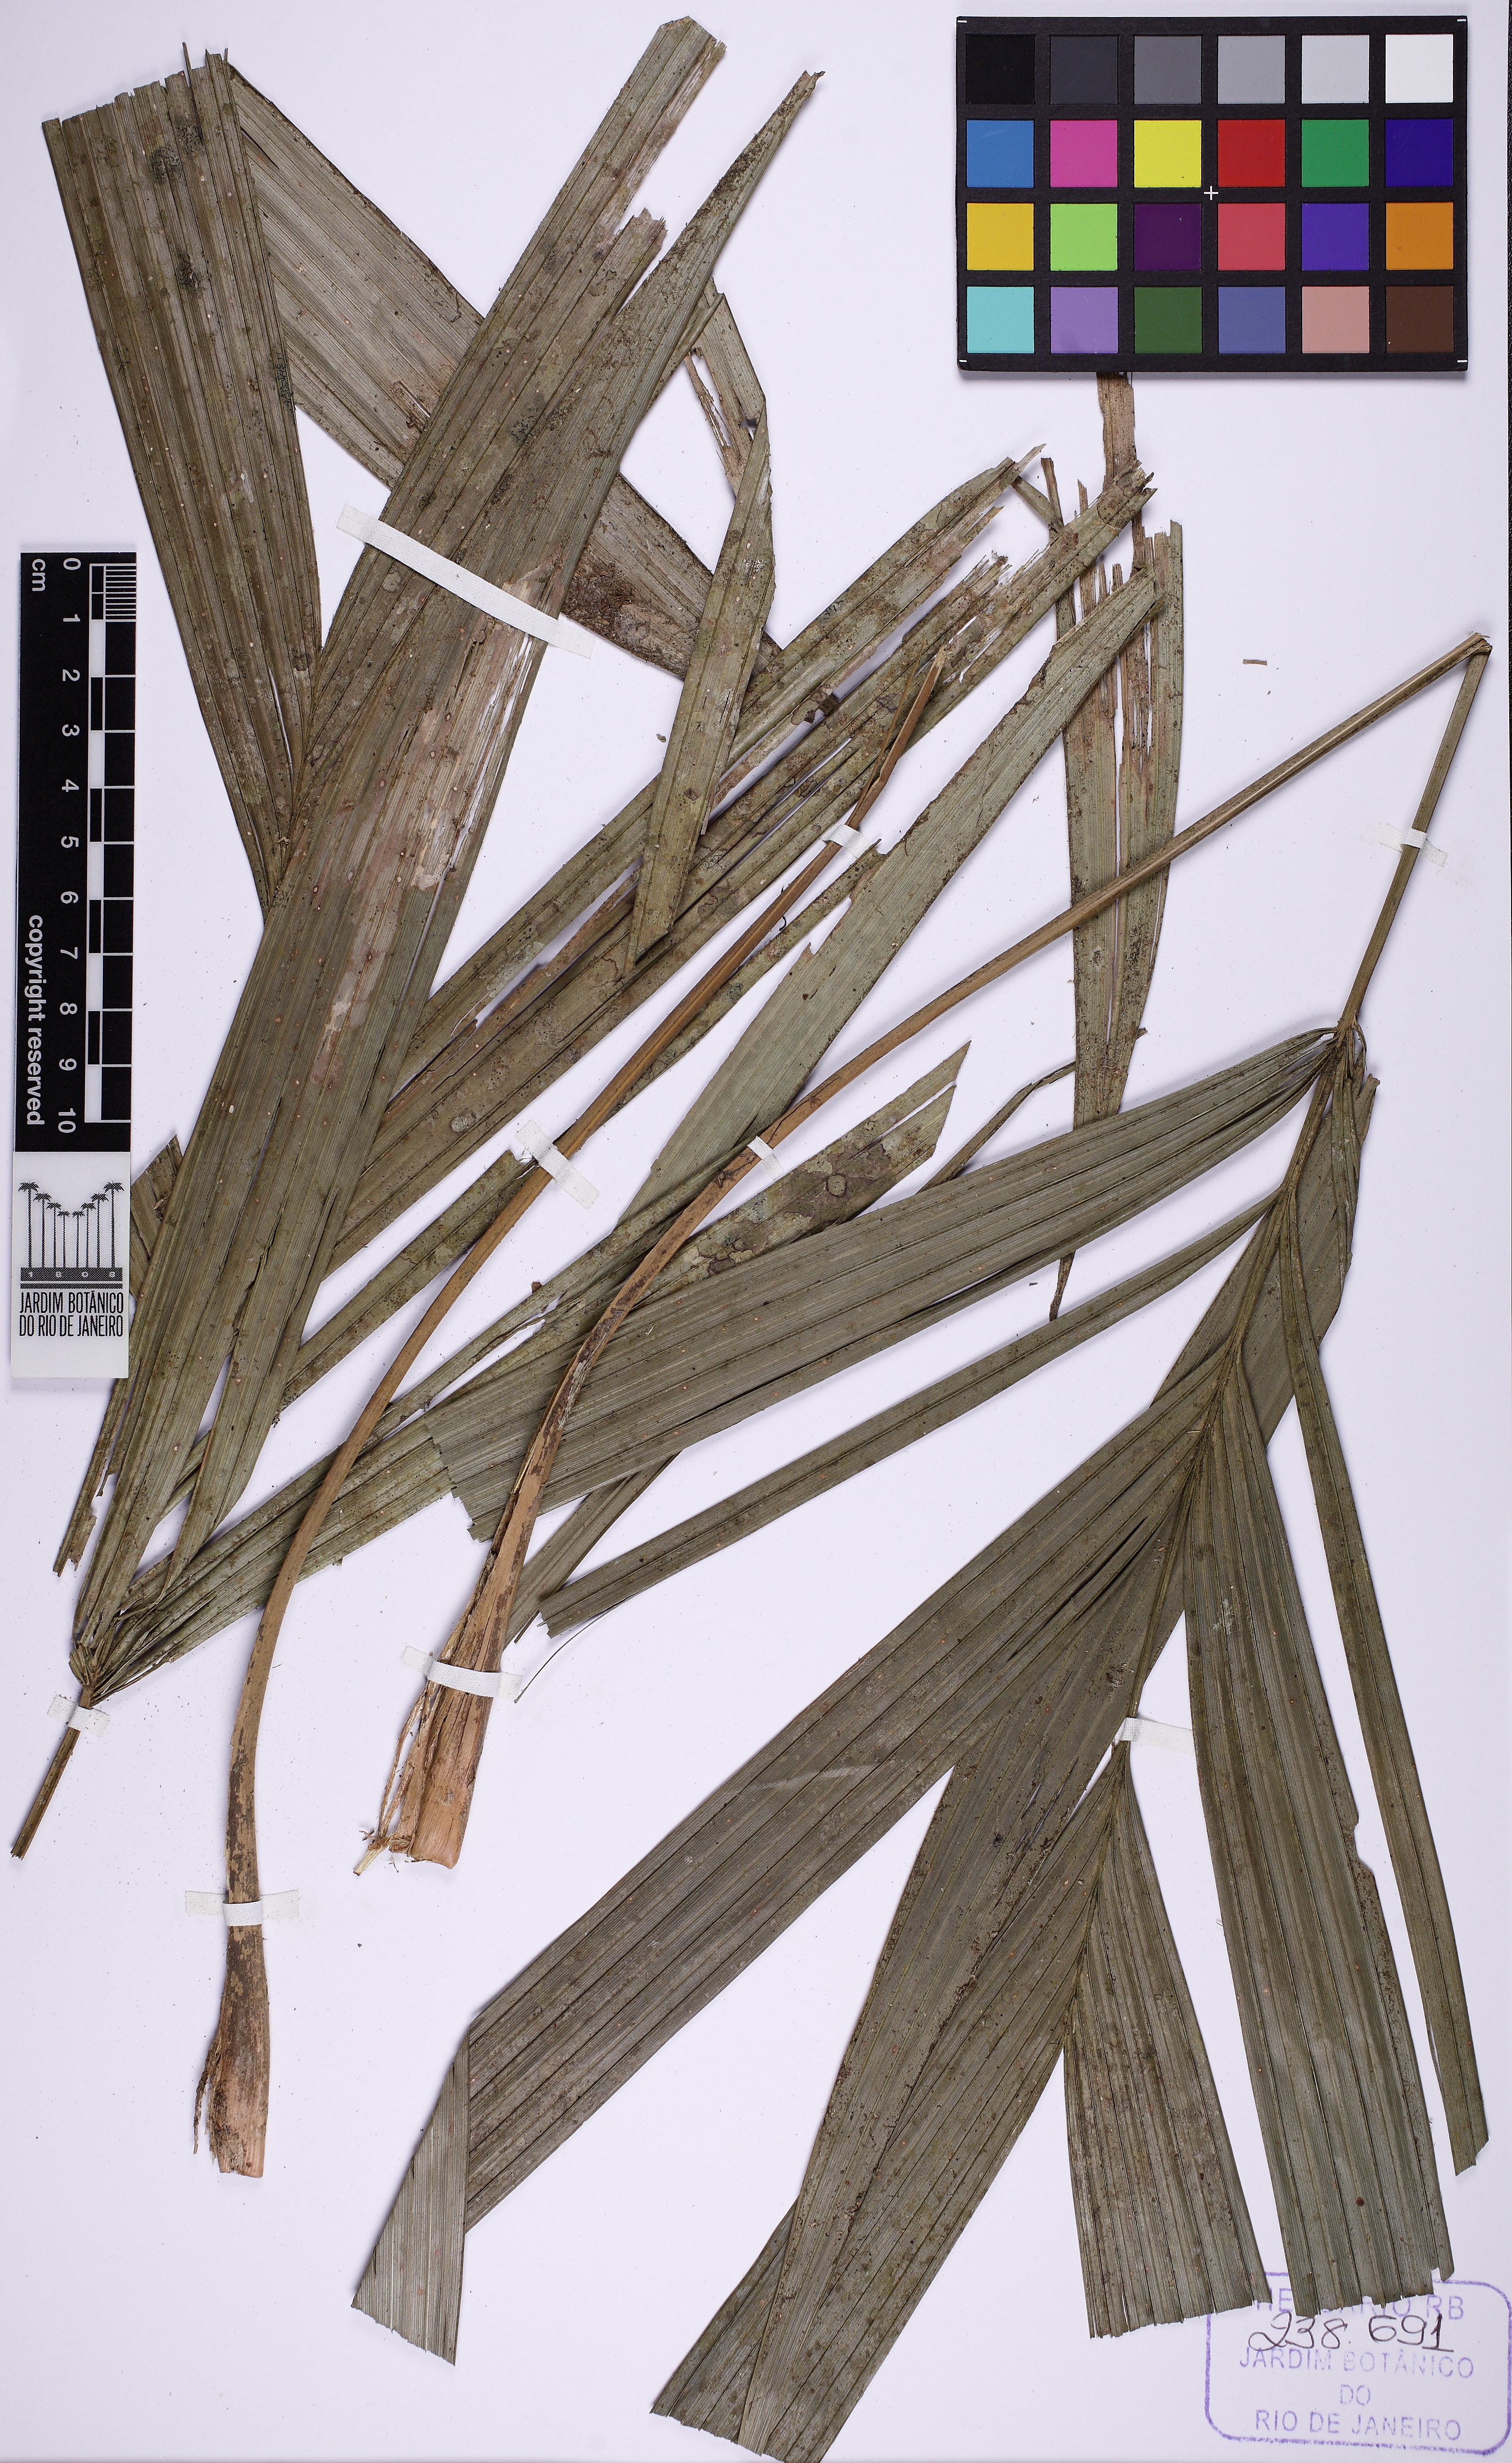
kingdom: Plantae
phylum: Tracheophyta
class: Liliopsida
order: Arecales
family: Arecaceae
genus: Geonoma
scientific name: Geonoma pohliana
